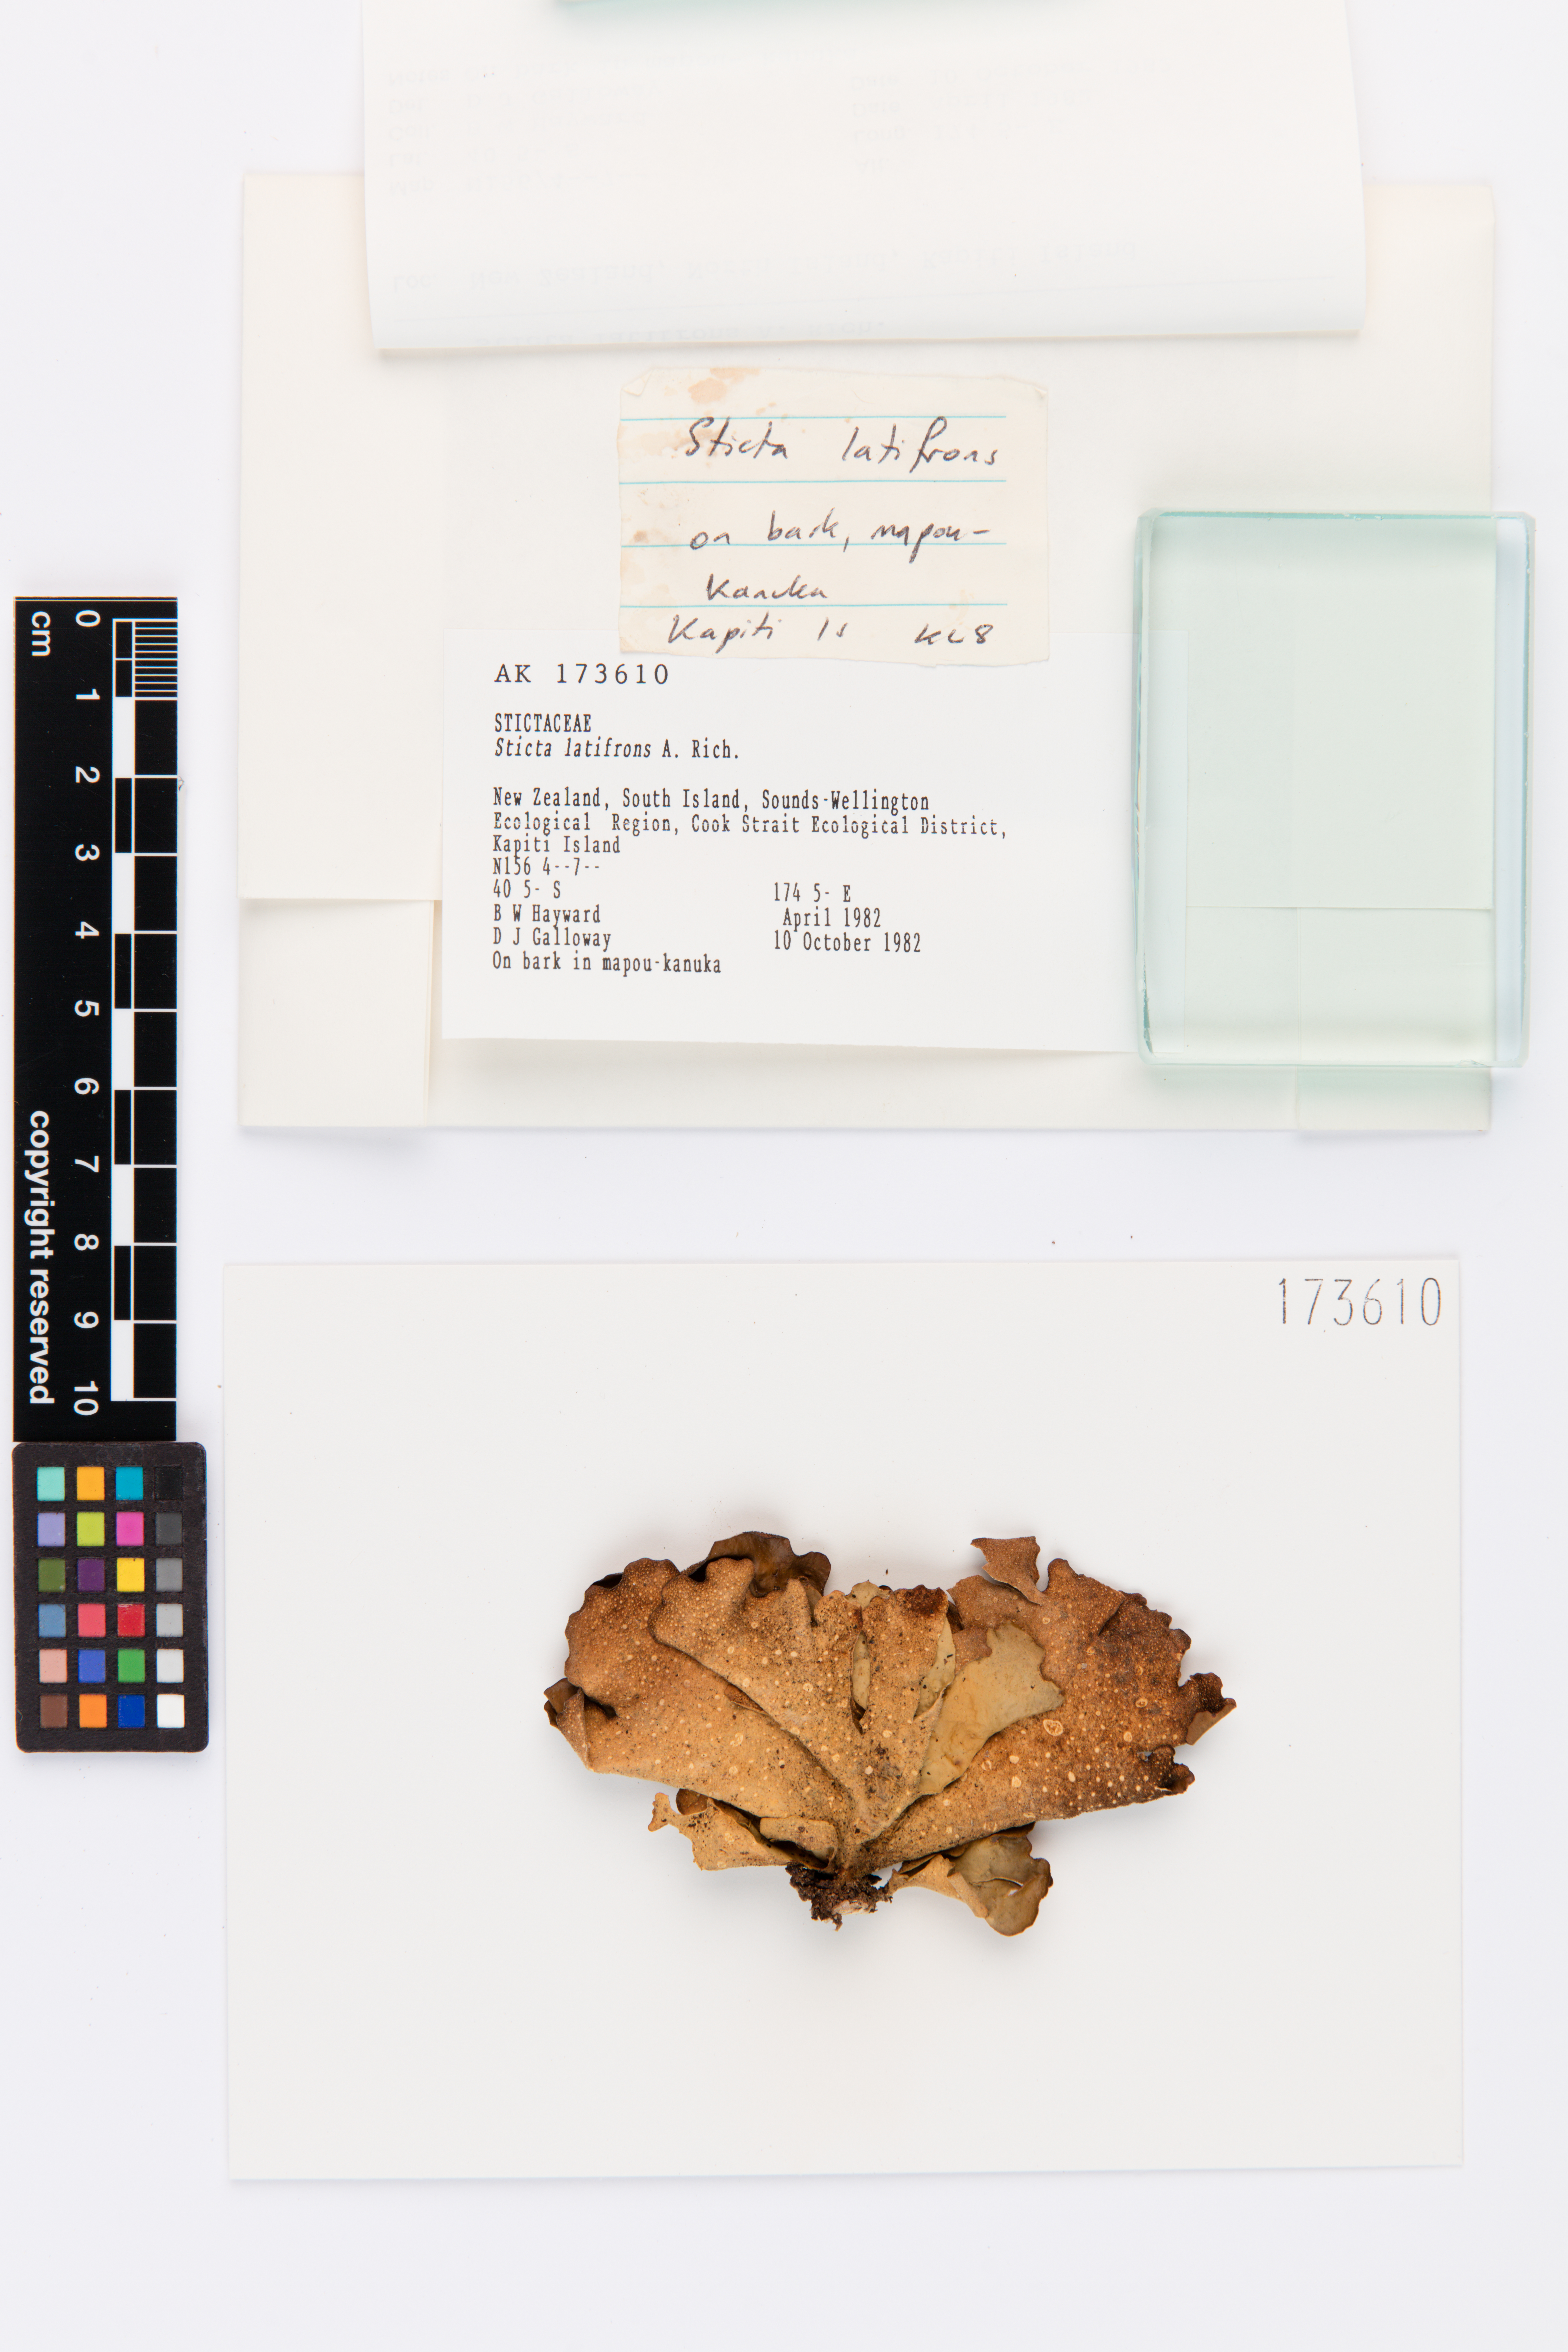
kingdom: Fungi
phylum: Ascomycota
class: Lecanoromycetes
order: Peltigerales
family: Lobariaceae
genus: Sticta
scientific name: Sticta latifrons
